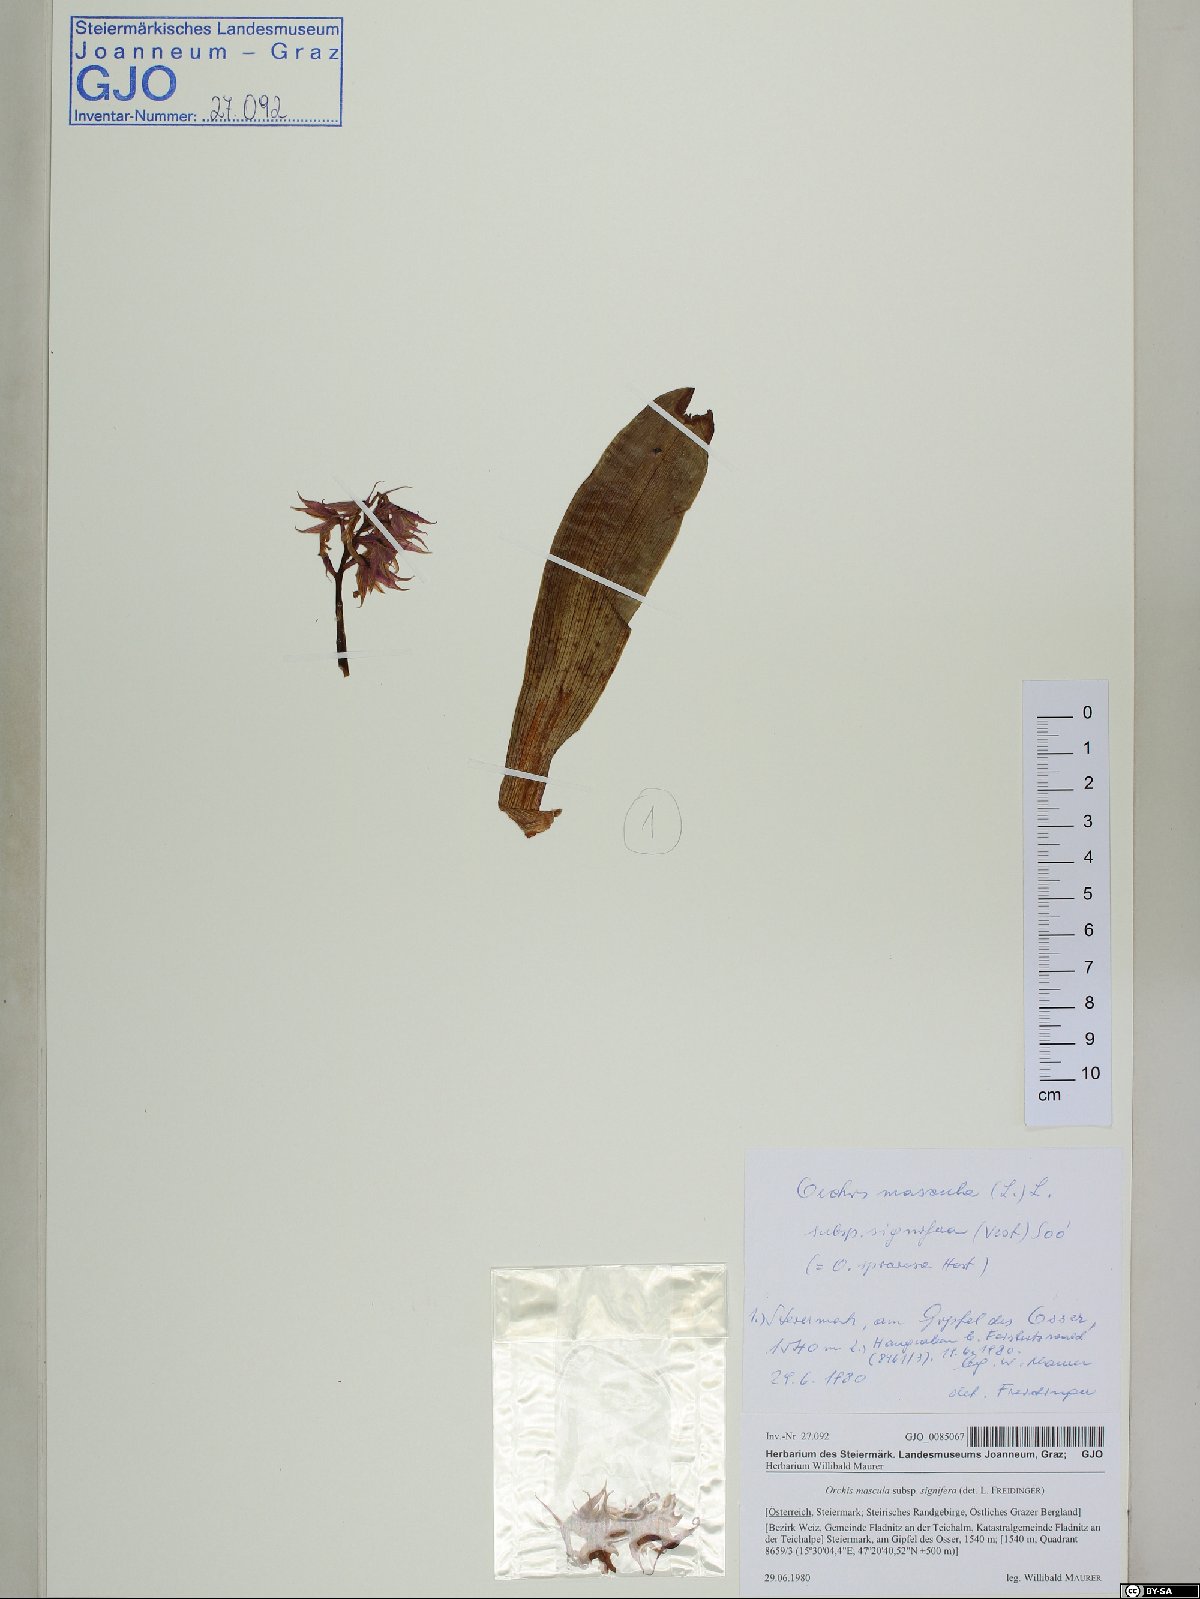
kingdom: Plantae
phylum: Tracheophyta
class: Liliopsida
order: Asparagales
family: Orchidaceae
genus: Orchis
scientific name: Orchis mascula
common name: Early-purple orchid
